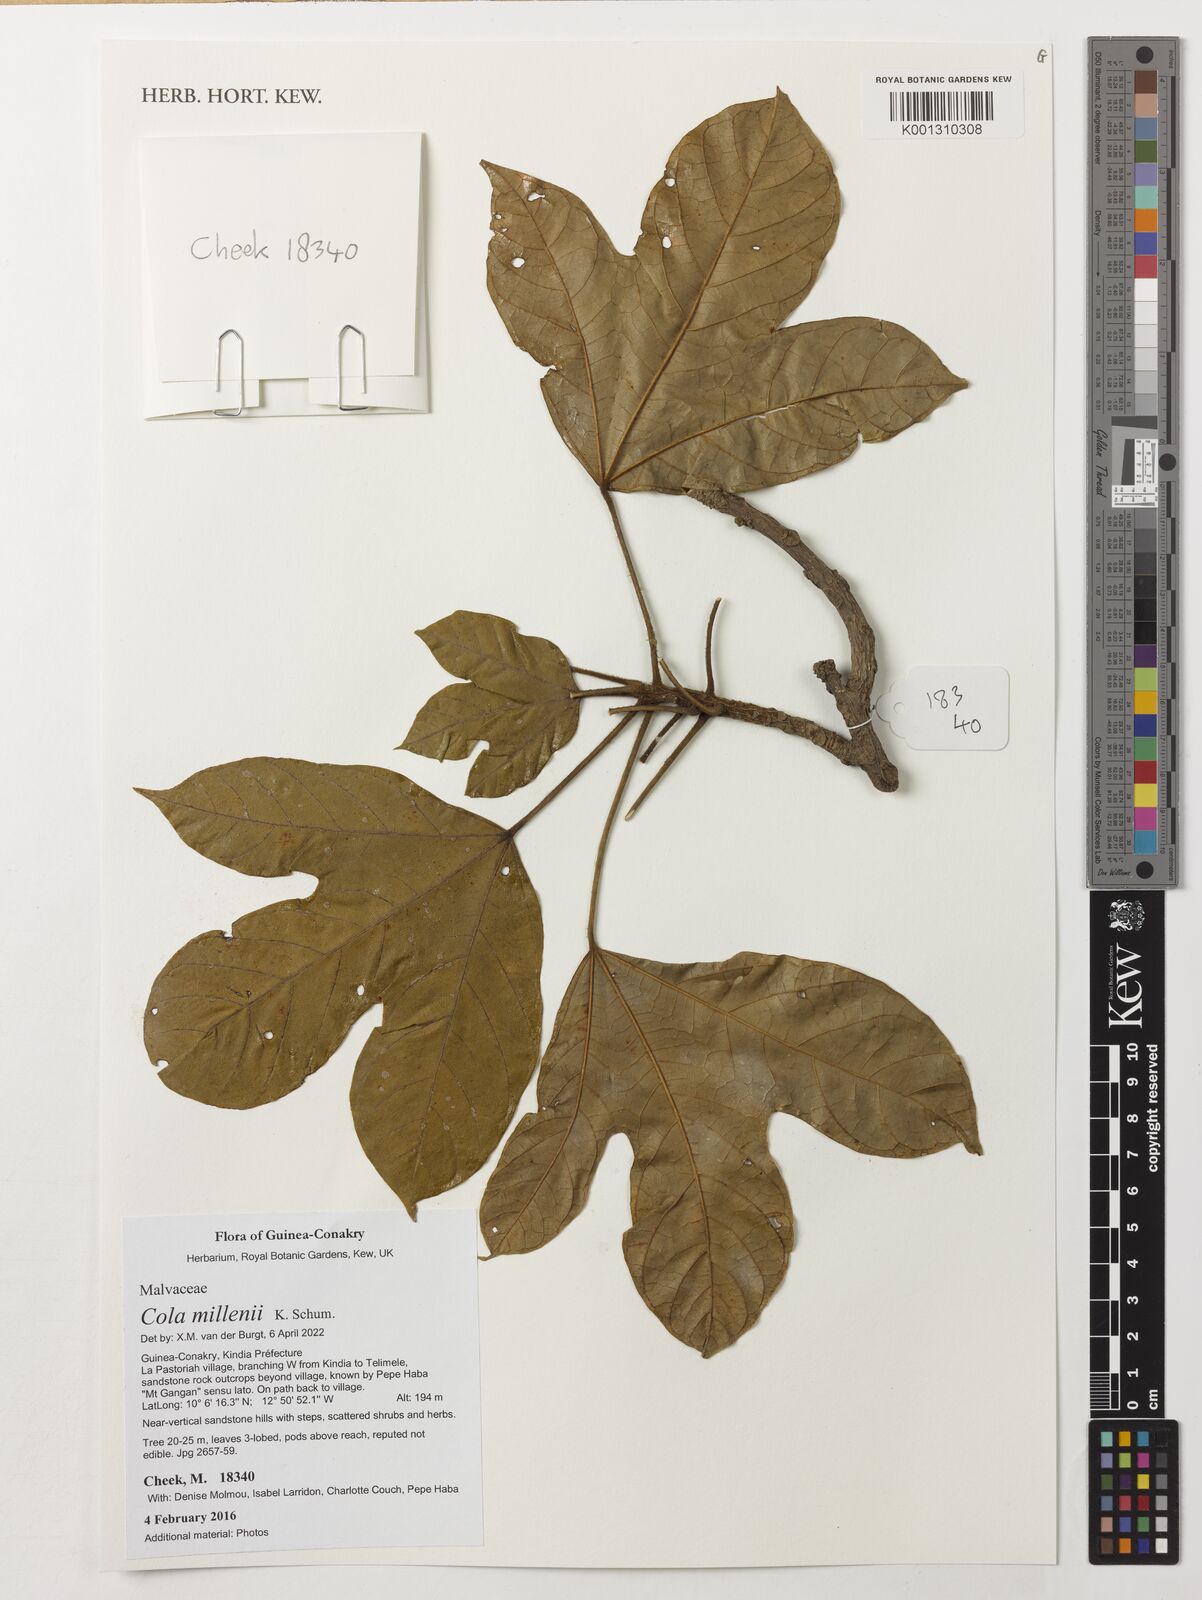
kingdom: Plantae
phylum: Tracheophyta
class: Magnoliopsida
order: Malvales
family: Malvaceae
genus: Cola
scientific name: Cola millenii
